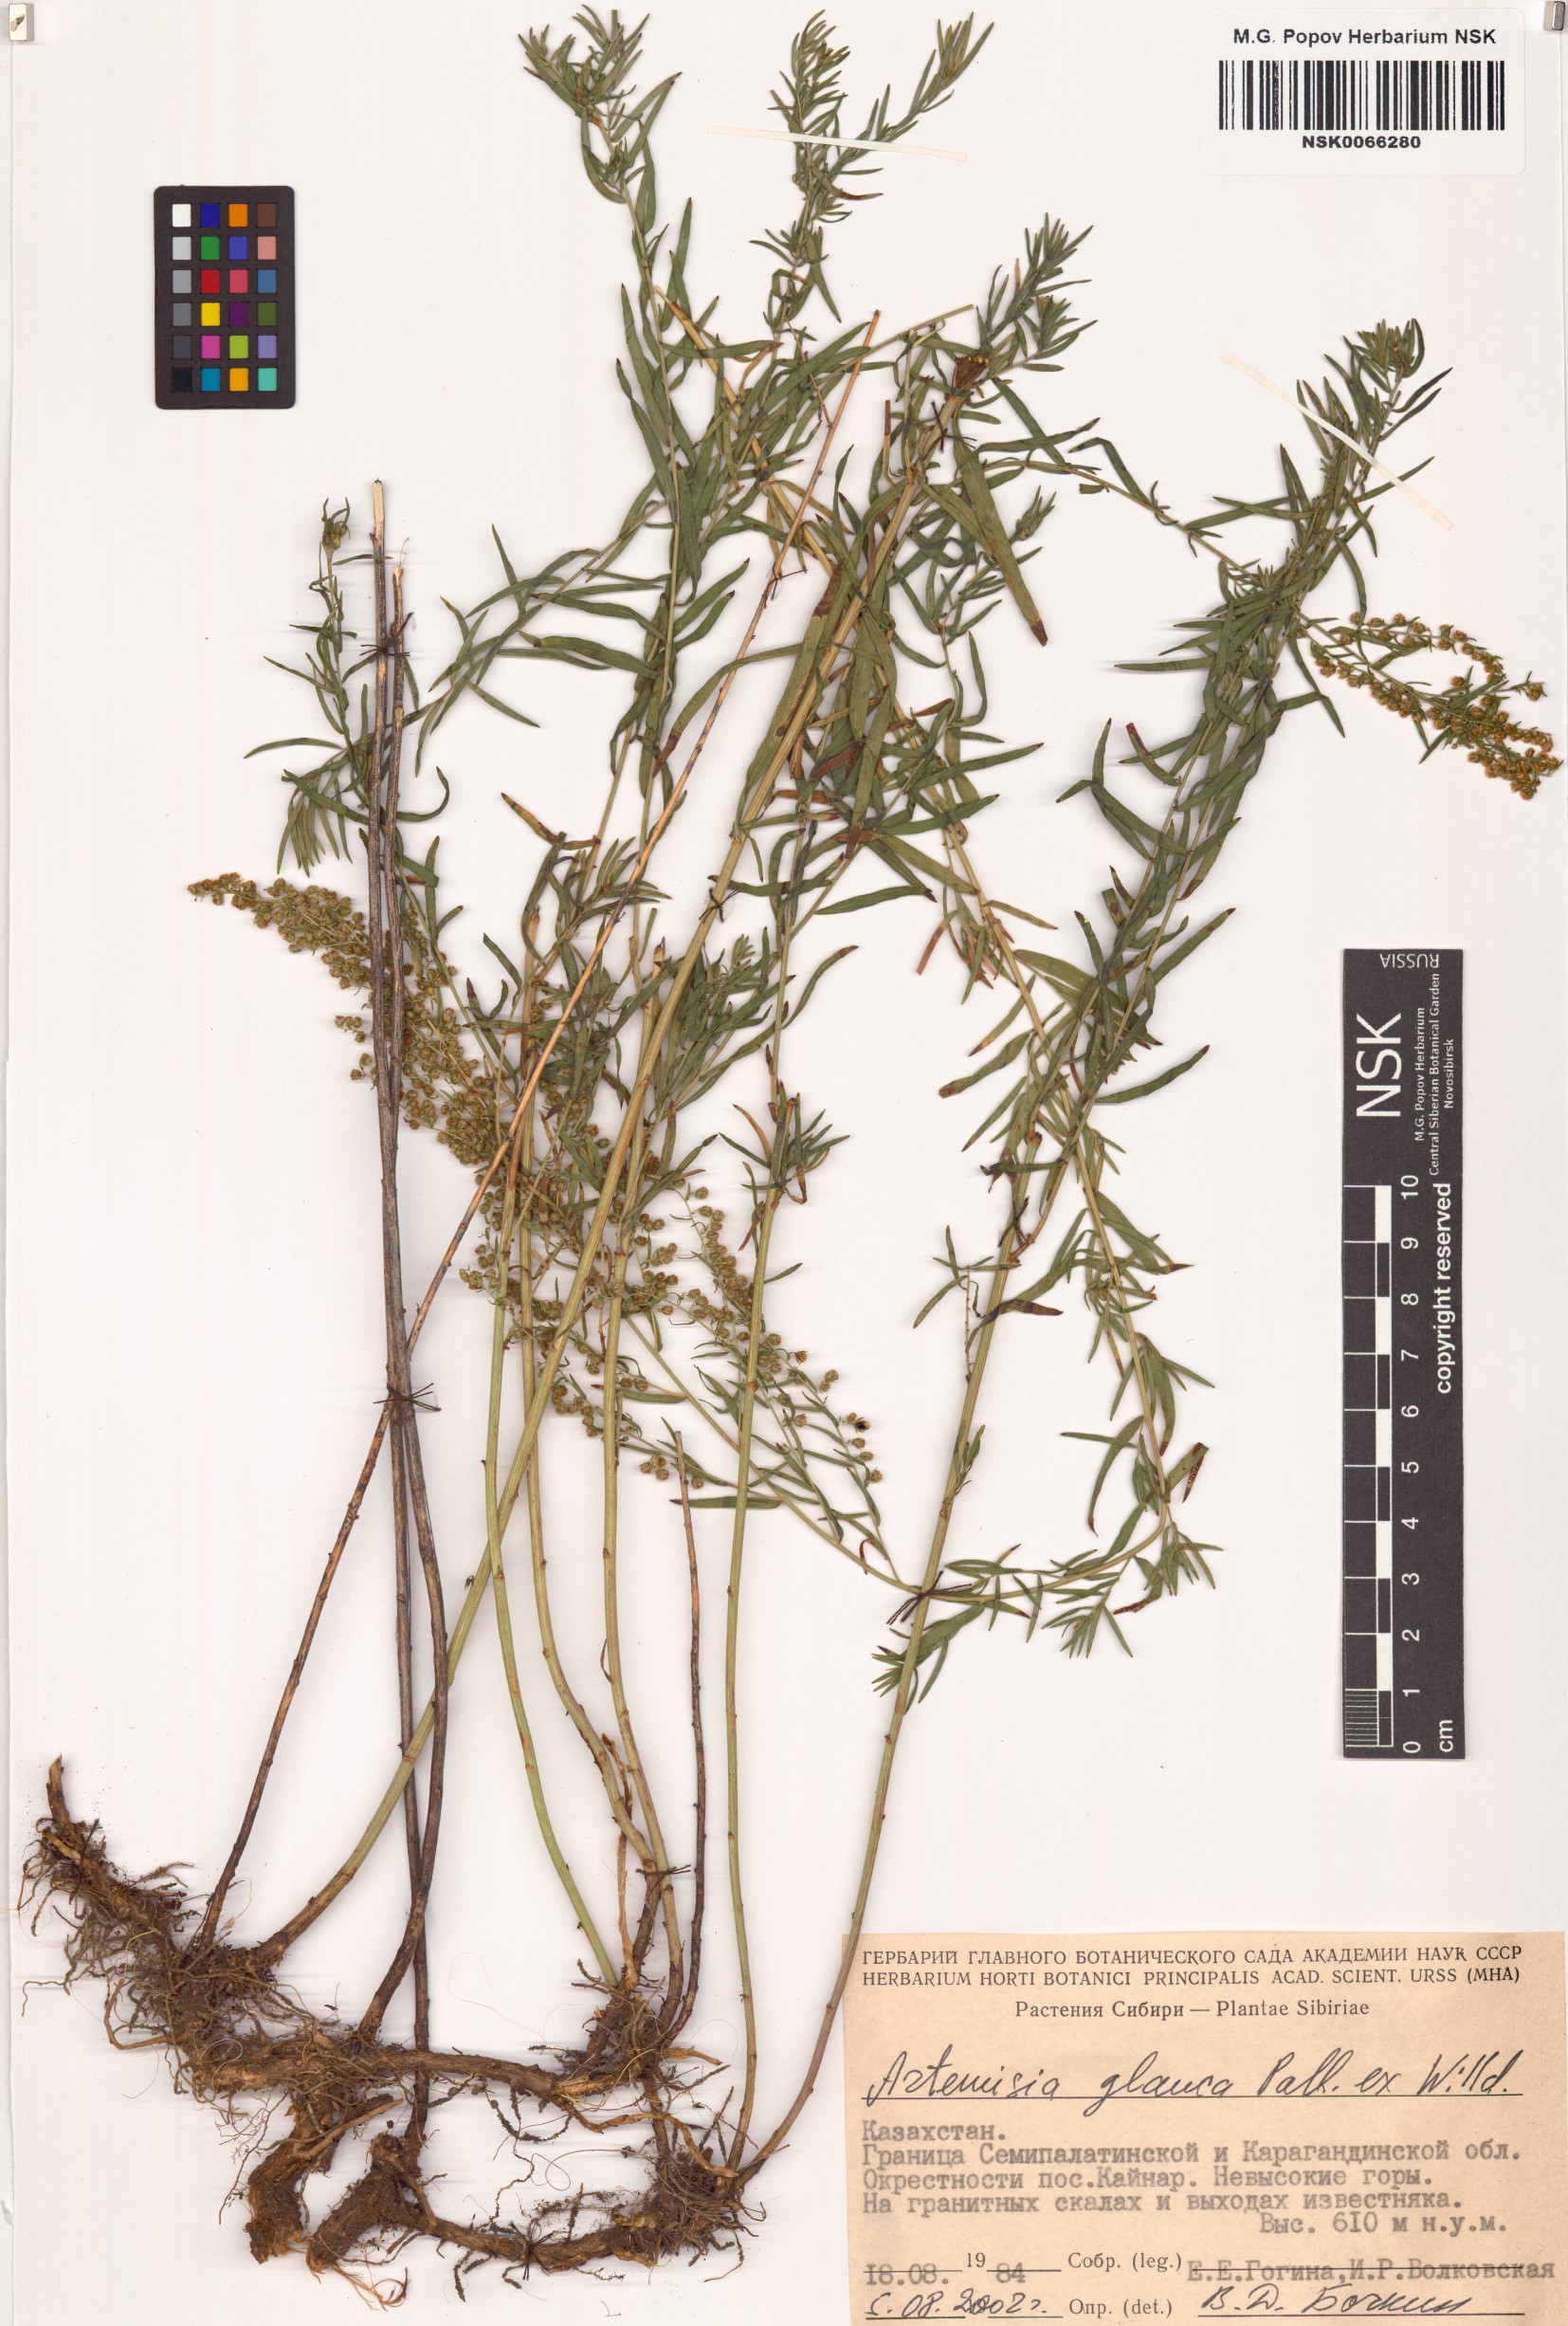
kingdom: Plantae
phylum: Tracheophyta
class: Magnoliopsida
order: Asterales
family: Asteraceae
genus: Artemisia
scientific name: Artemisia glauca
